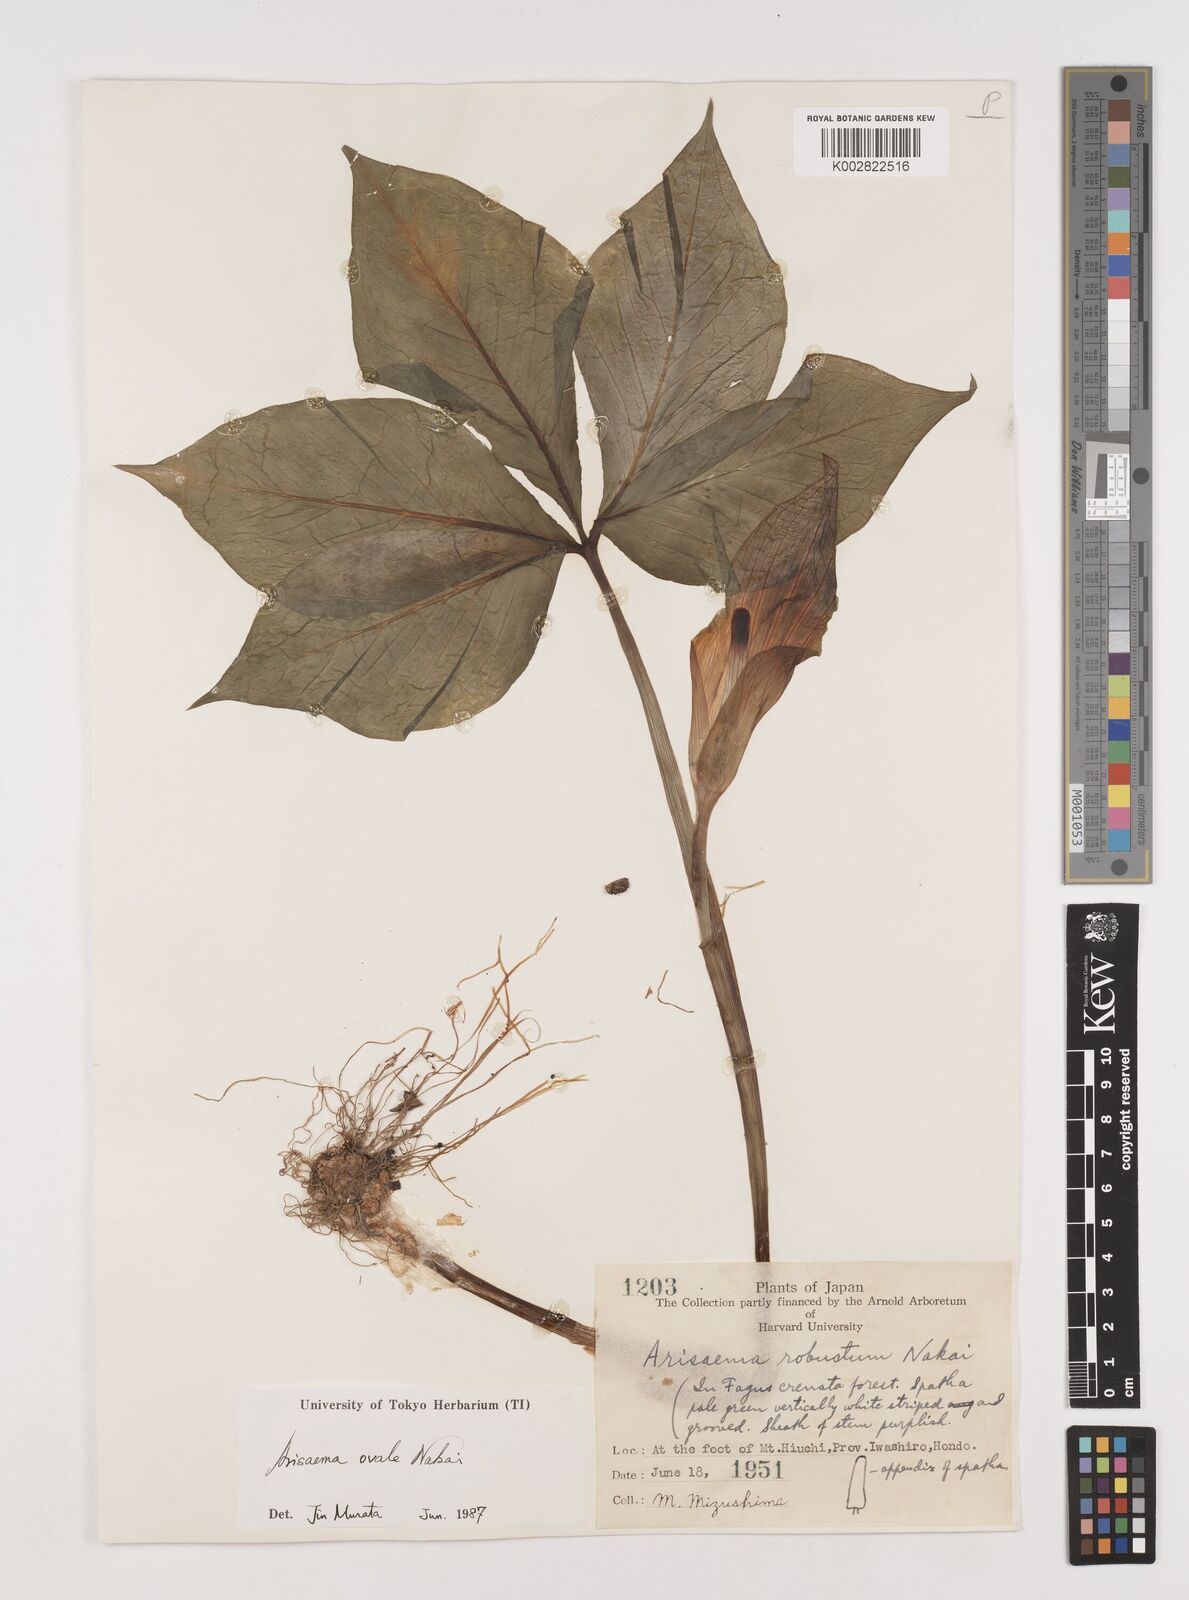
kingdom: Plantae
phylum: Tracheophyta
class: Liliopsida
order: Alismatales
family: Araceae
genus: Arisaema
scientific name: Arisaema ovale
